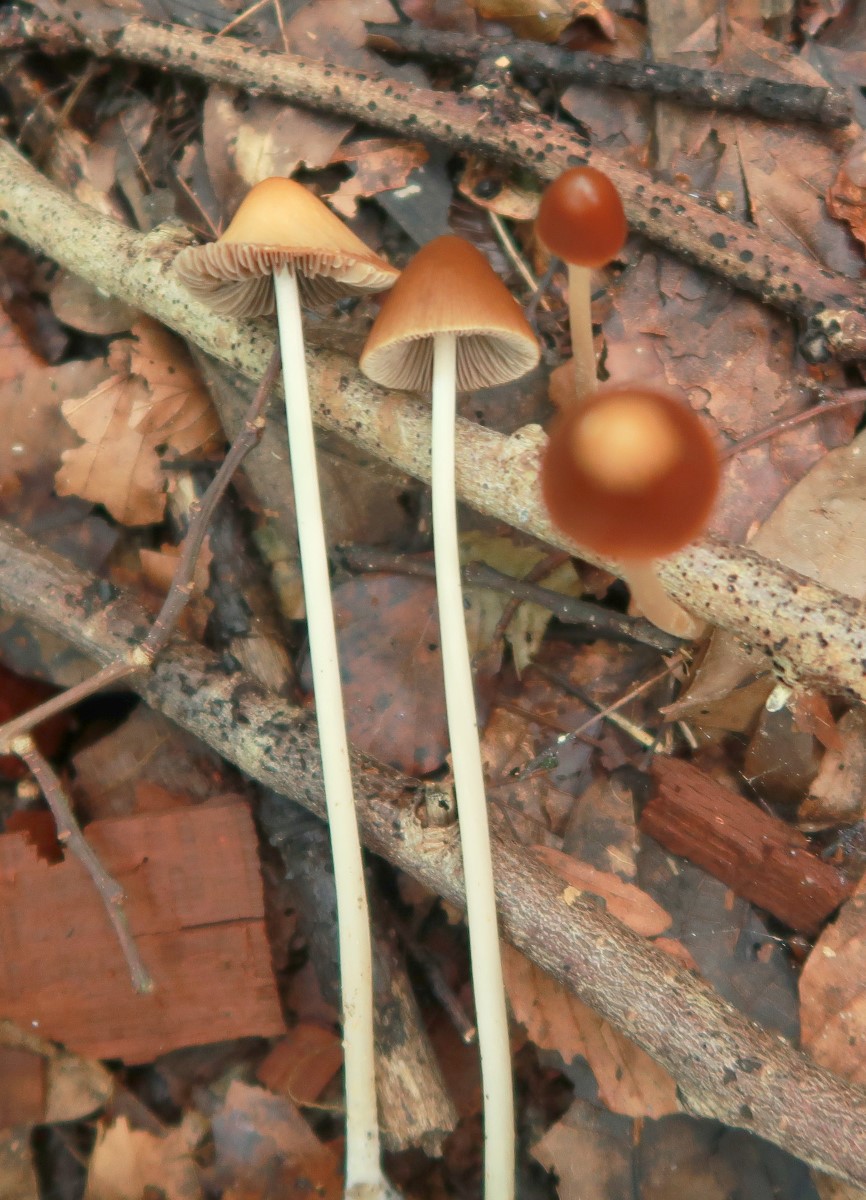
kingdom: Fungi
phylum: Basidiomycota
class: Agaricomycetes
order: Agaricales
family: Psathyrellaceae
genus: Parasola
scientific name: Parasola conopilea
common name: kegle-hjulhat
